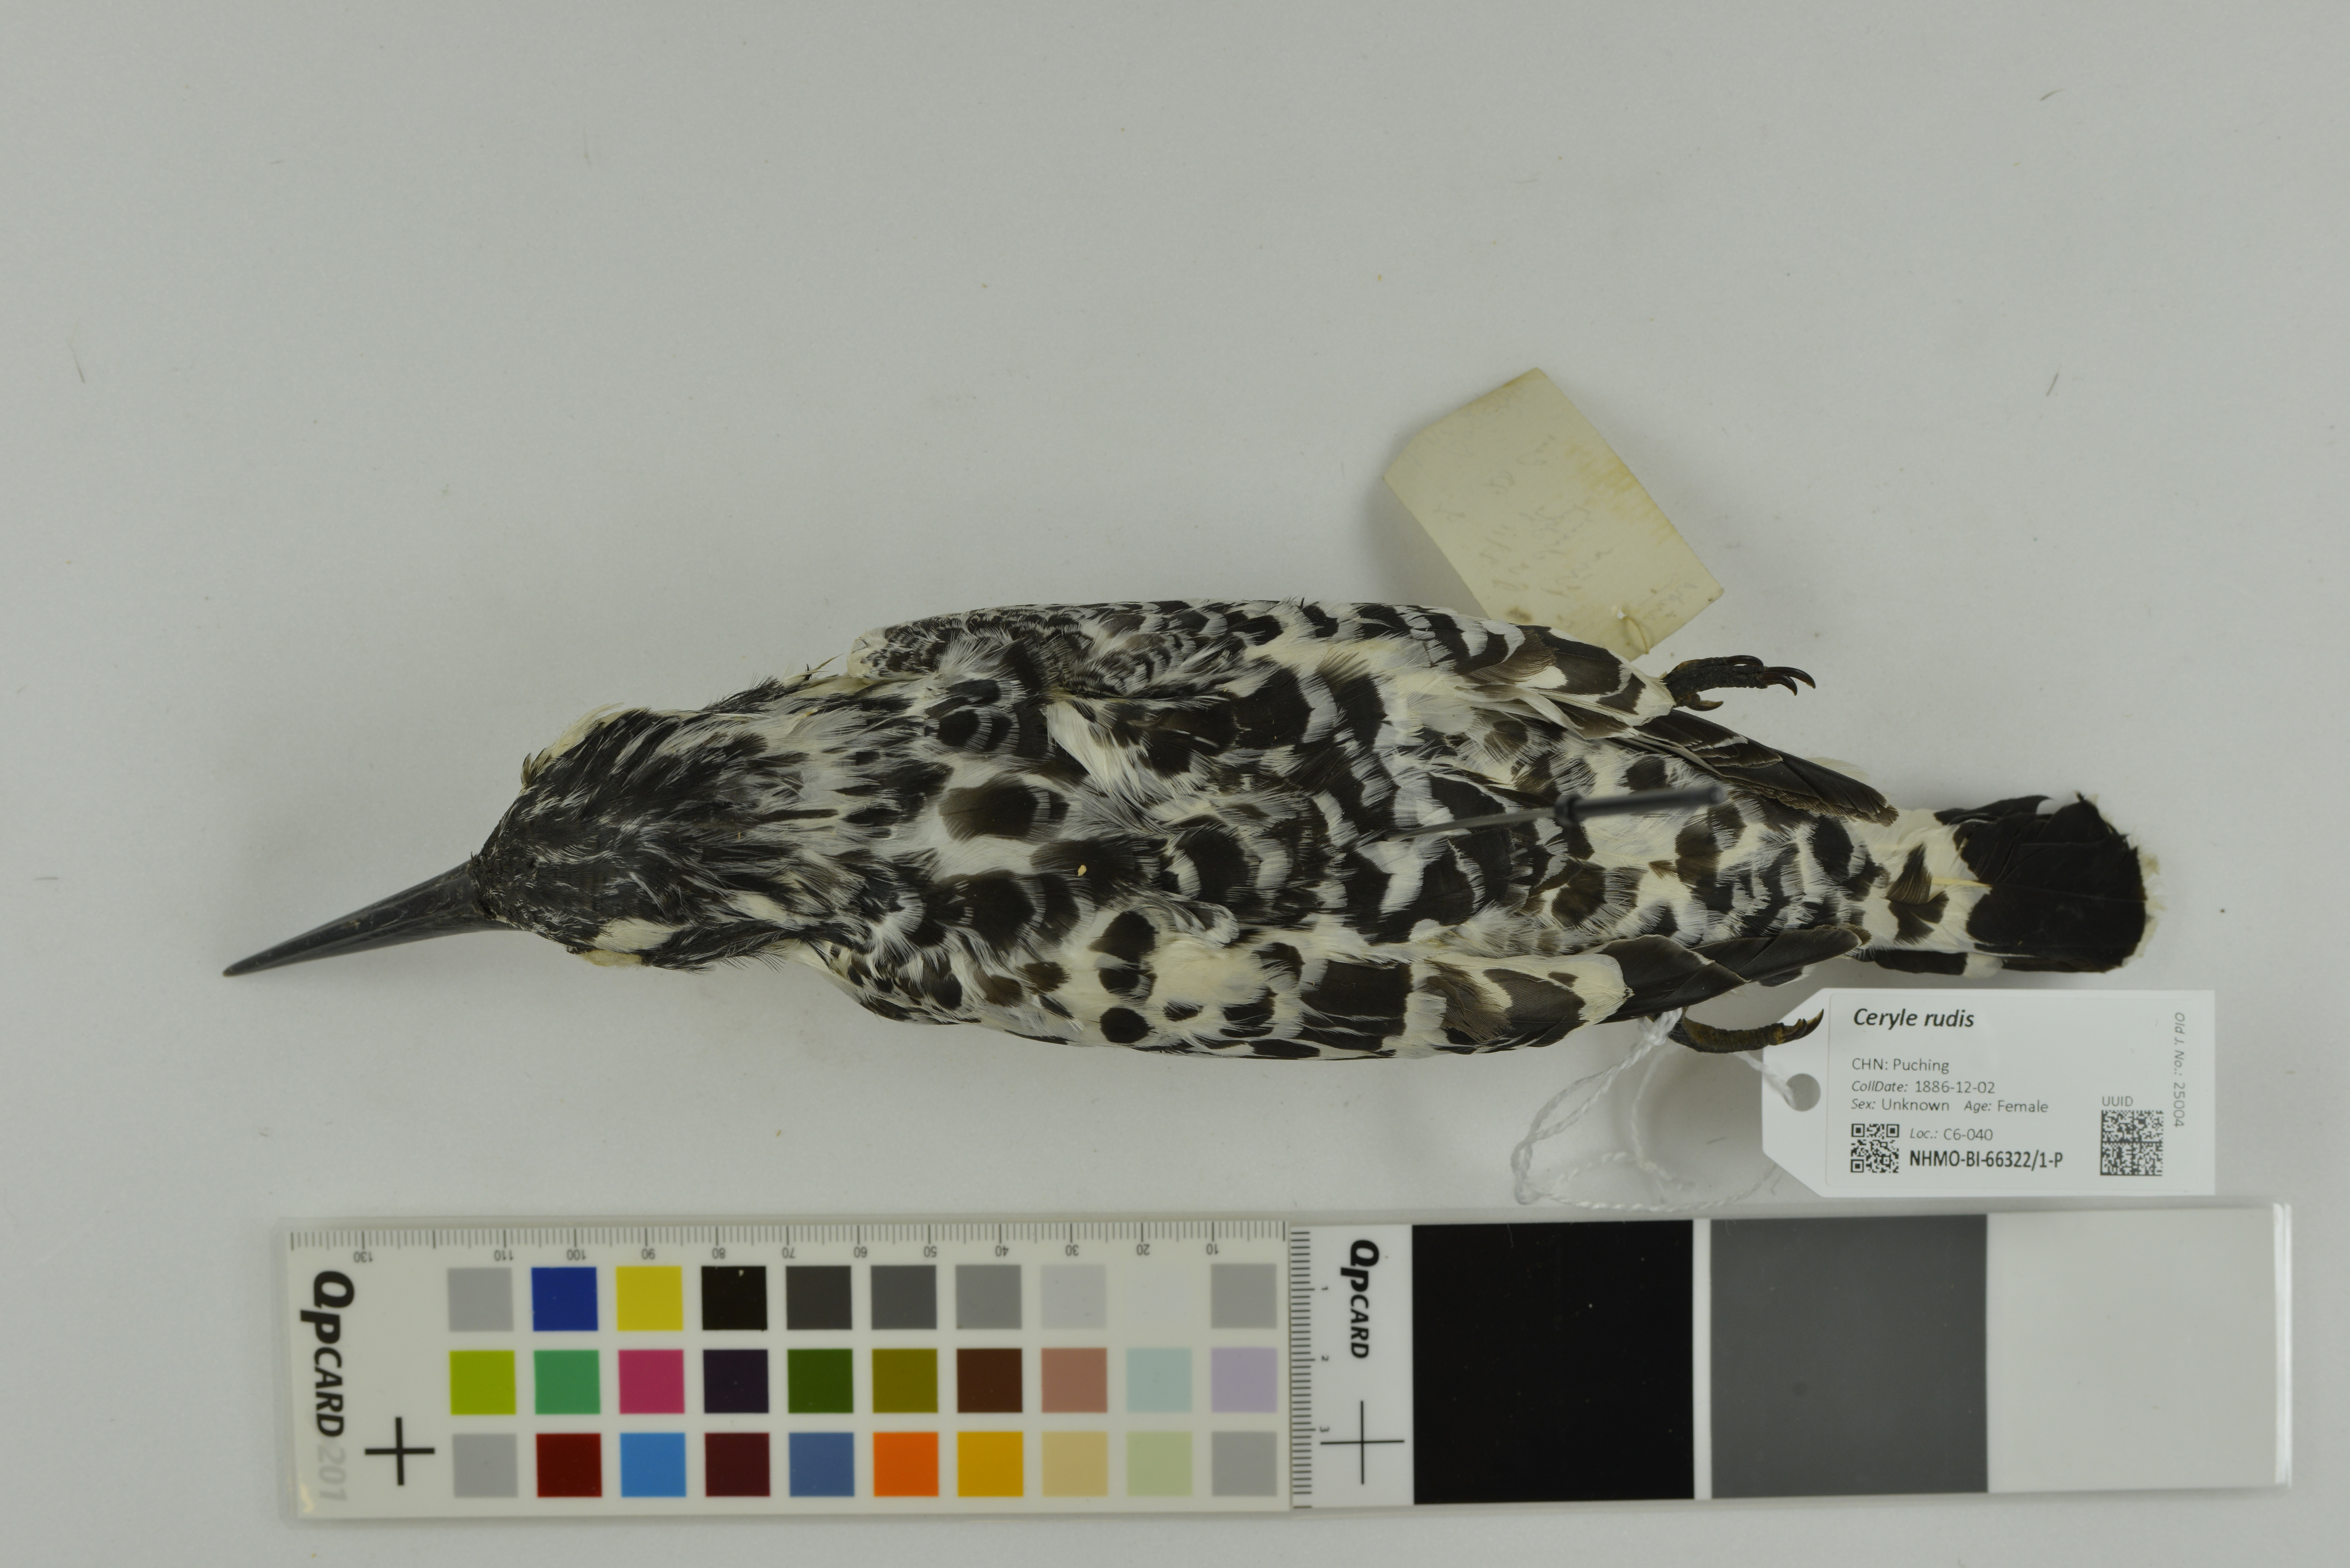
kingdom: Animalia
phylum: Chordata
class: Aves
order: Coraciiformes
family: Alcedinidae
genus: Ceryle
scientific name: Ceryle rudis
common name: Pied kingfisher
